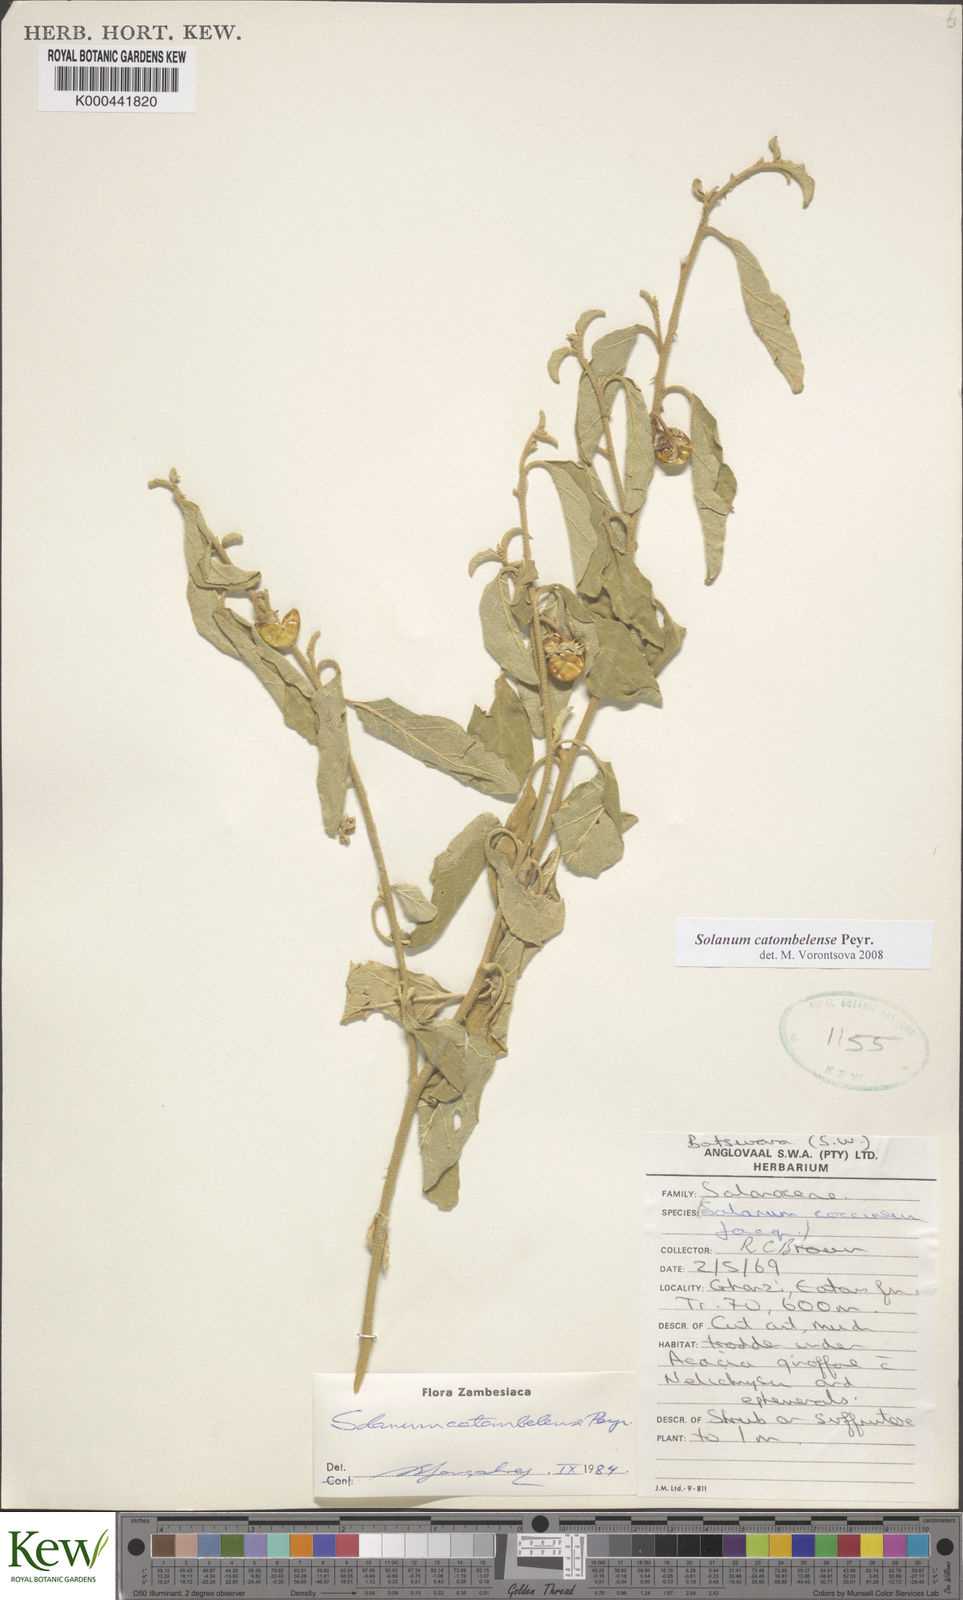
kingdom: Plantae
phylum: Tracheophyta
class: Magnoliopsida
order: Solanales
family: Solanaceae
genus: Solanum
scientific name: Solanum catombelense
